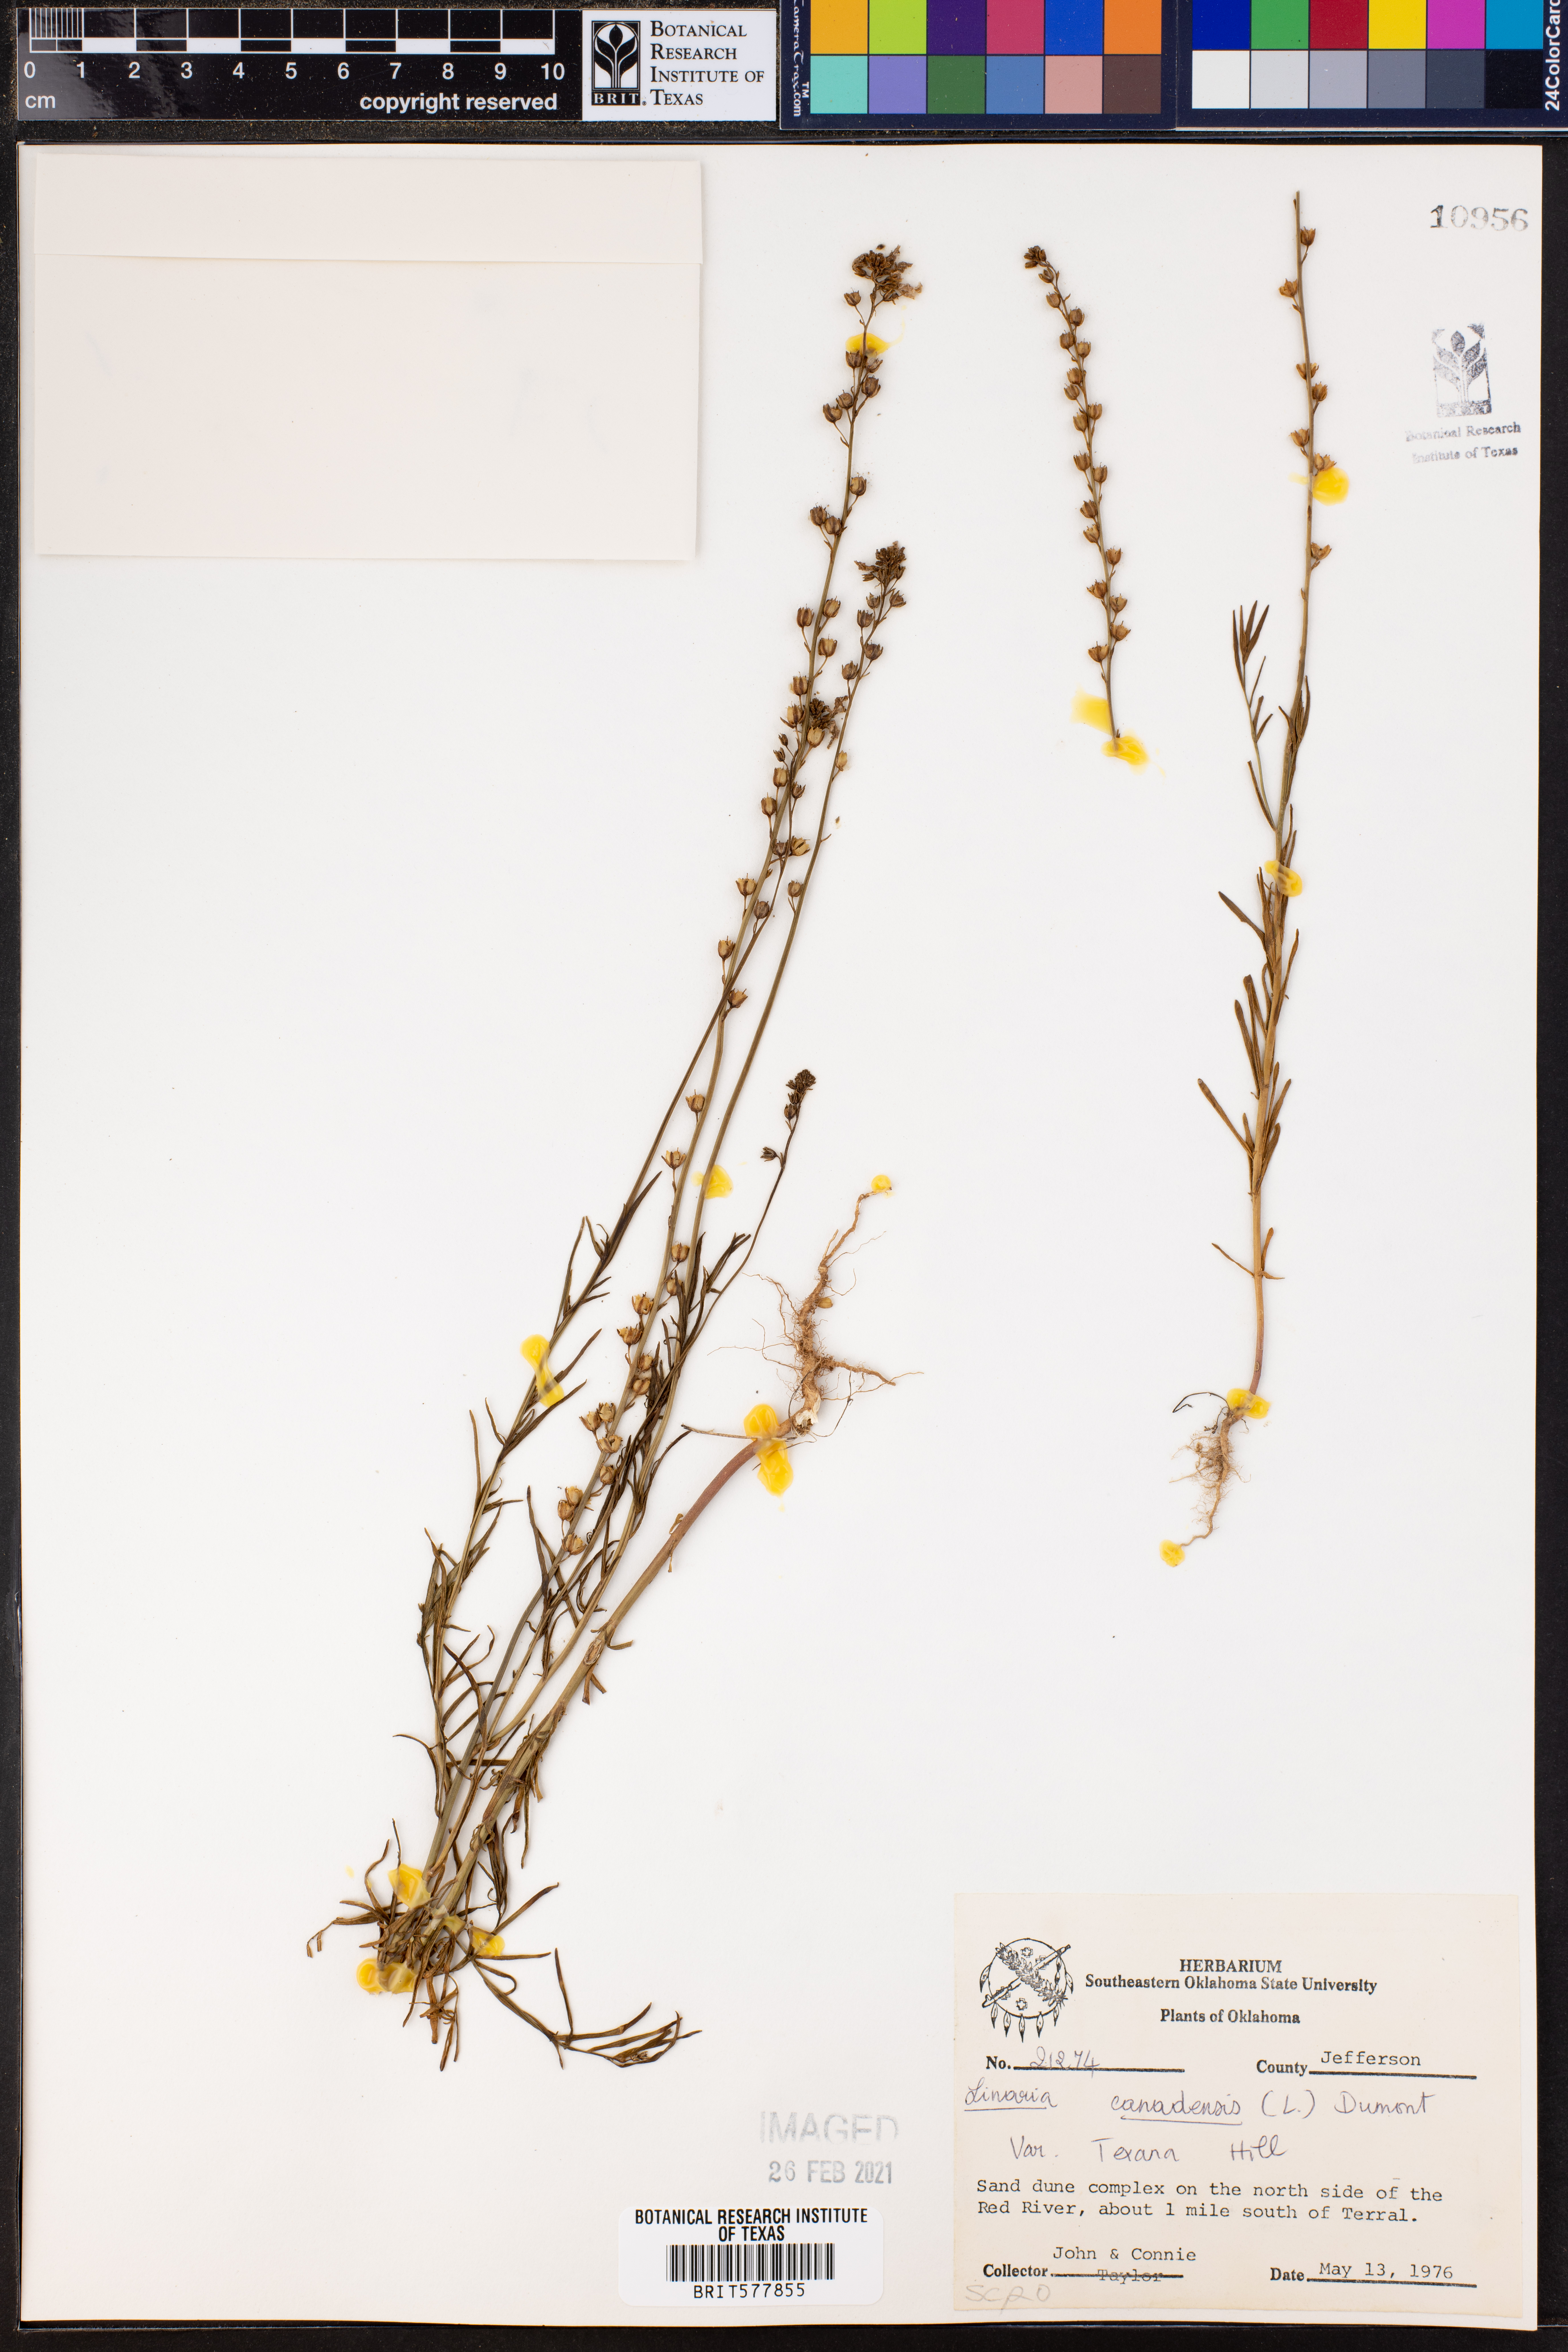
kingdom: Plantae
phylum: Tracheophyta
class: Magnoliopsida
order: Lamiales
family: Plantaginaceae
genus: Nuttallanthus
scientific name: Nuttallanthus texanus
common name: Texas toadflax
